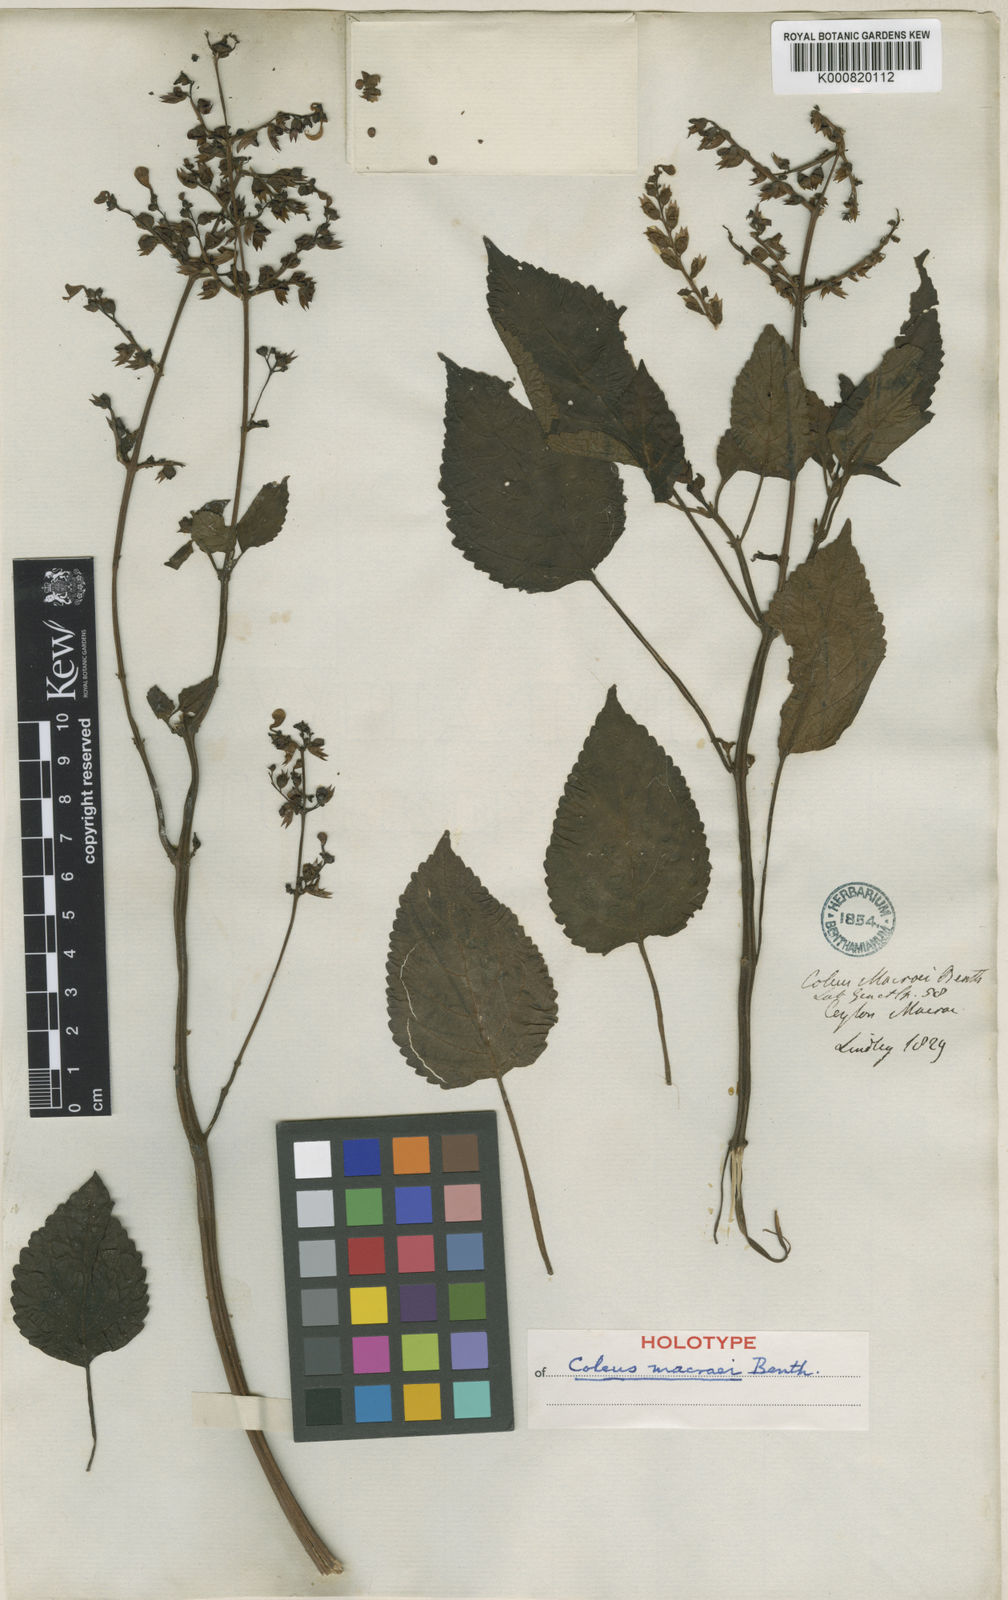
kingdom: Plantae
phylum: Tracheophyta
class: Magnoliopsida
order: Lamiales
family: Lamiaceae
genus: Coleus
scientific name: Coleus malabaricus
